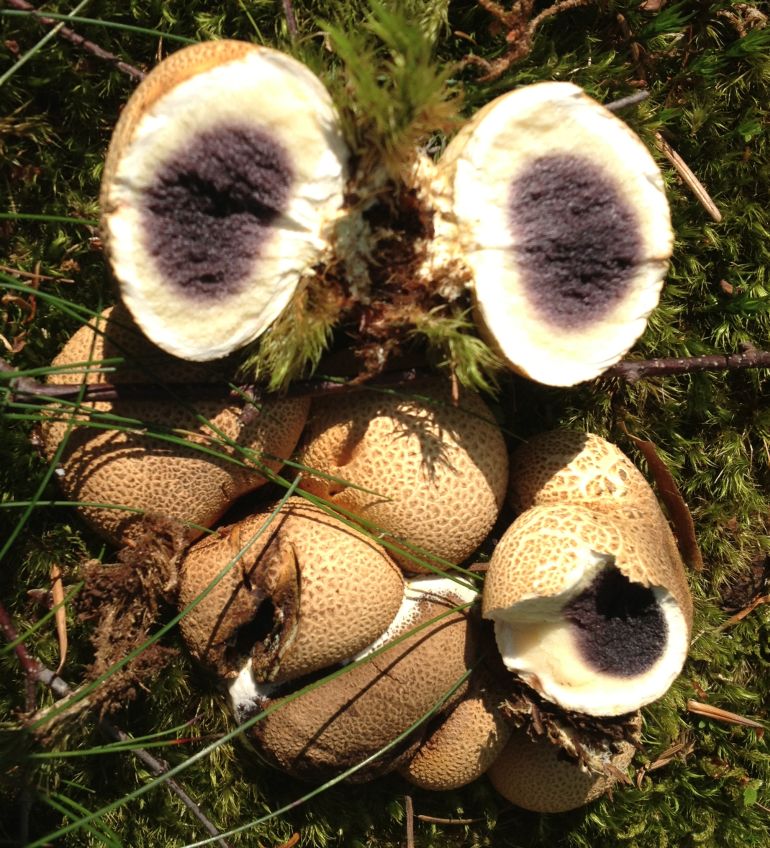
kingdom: Fungi
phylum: Basidiomycota
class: Agaricomycetes
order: Boletales
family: Sclerodermataceae
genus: Scleroderma
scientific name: Scleroderma citrinum
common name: almindelig bruskbold
